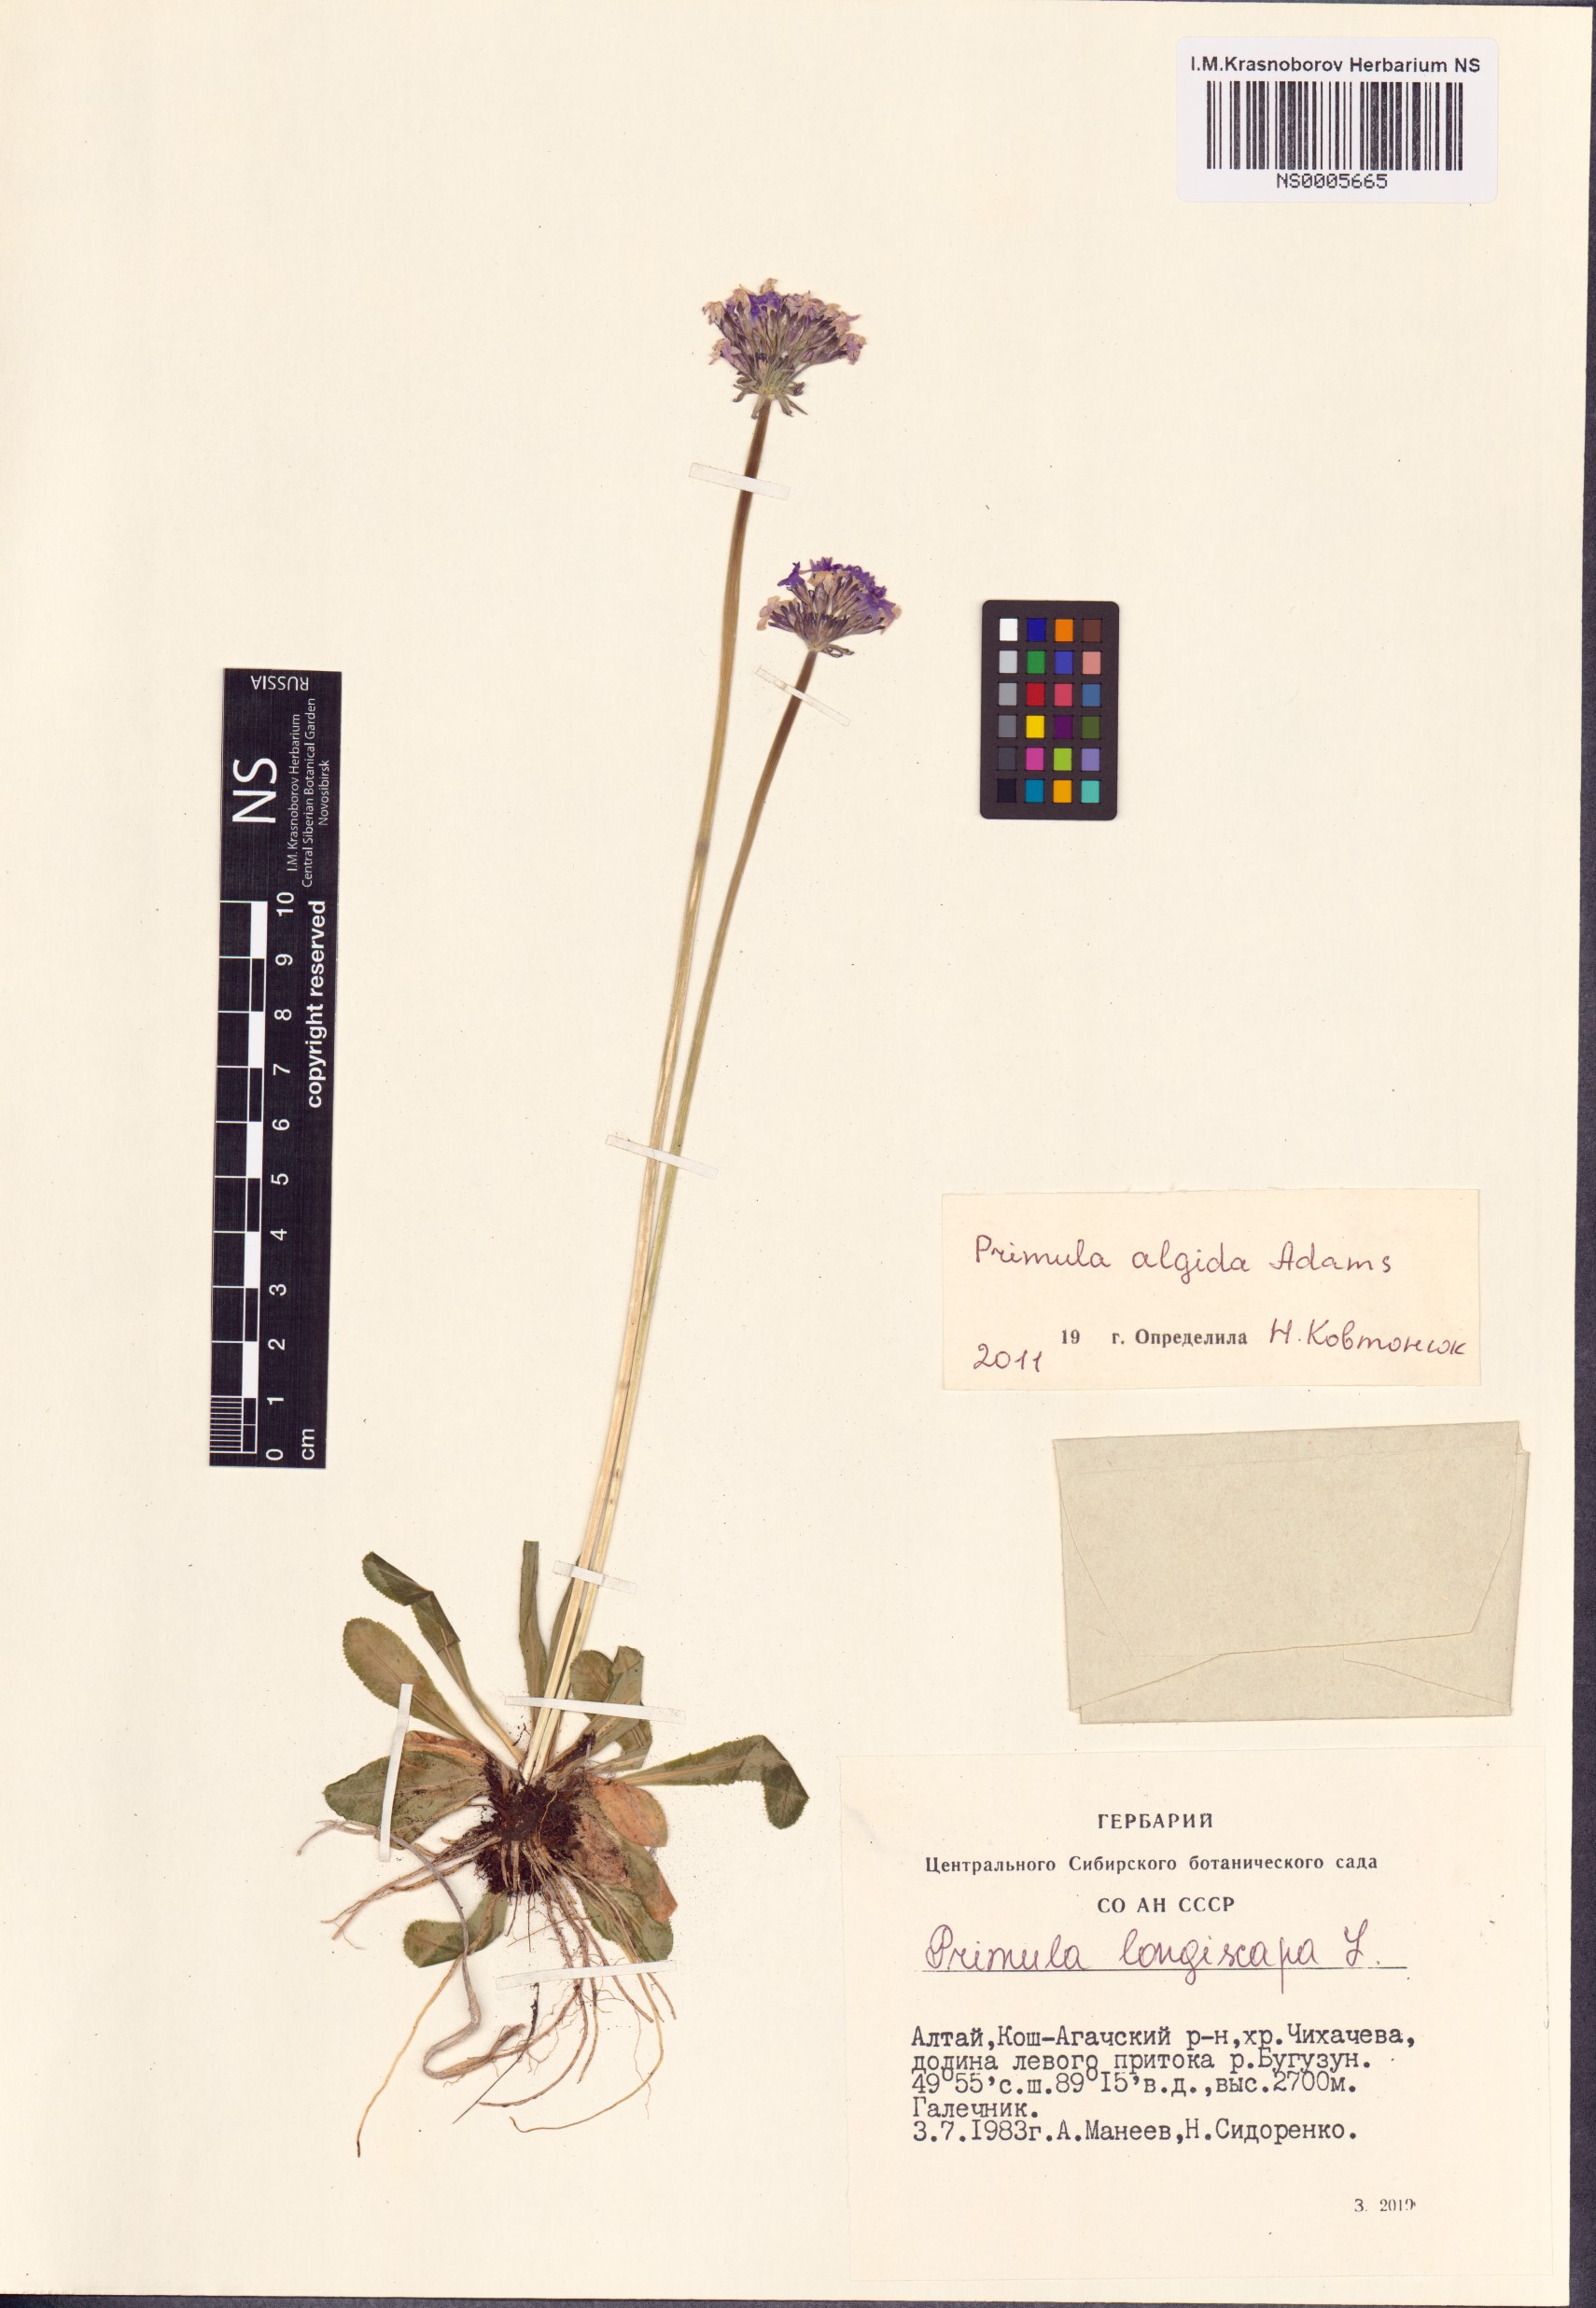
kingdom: Plantae
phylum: Tracheophyta
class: Magnoliopsida
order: Ericales
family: Primulaceae
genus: Primula
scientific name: Primula algida
